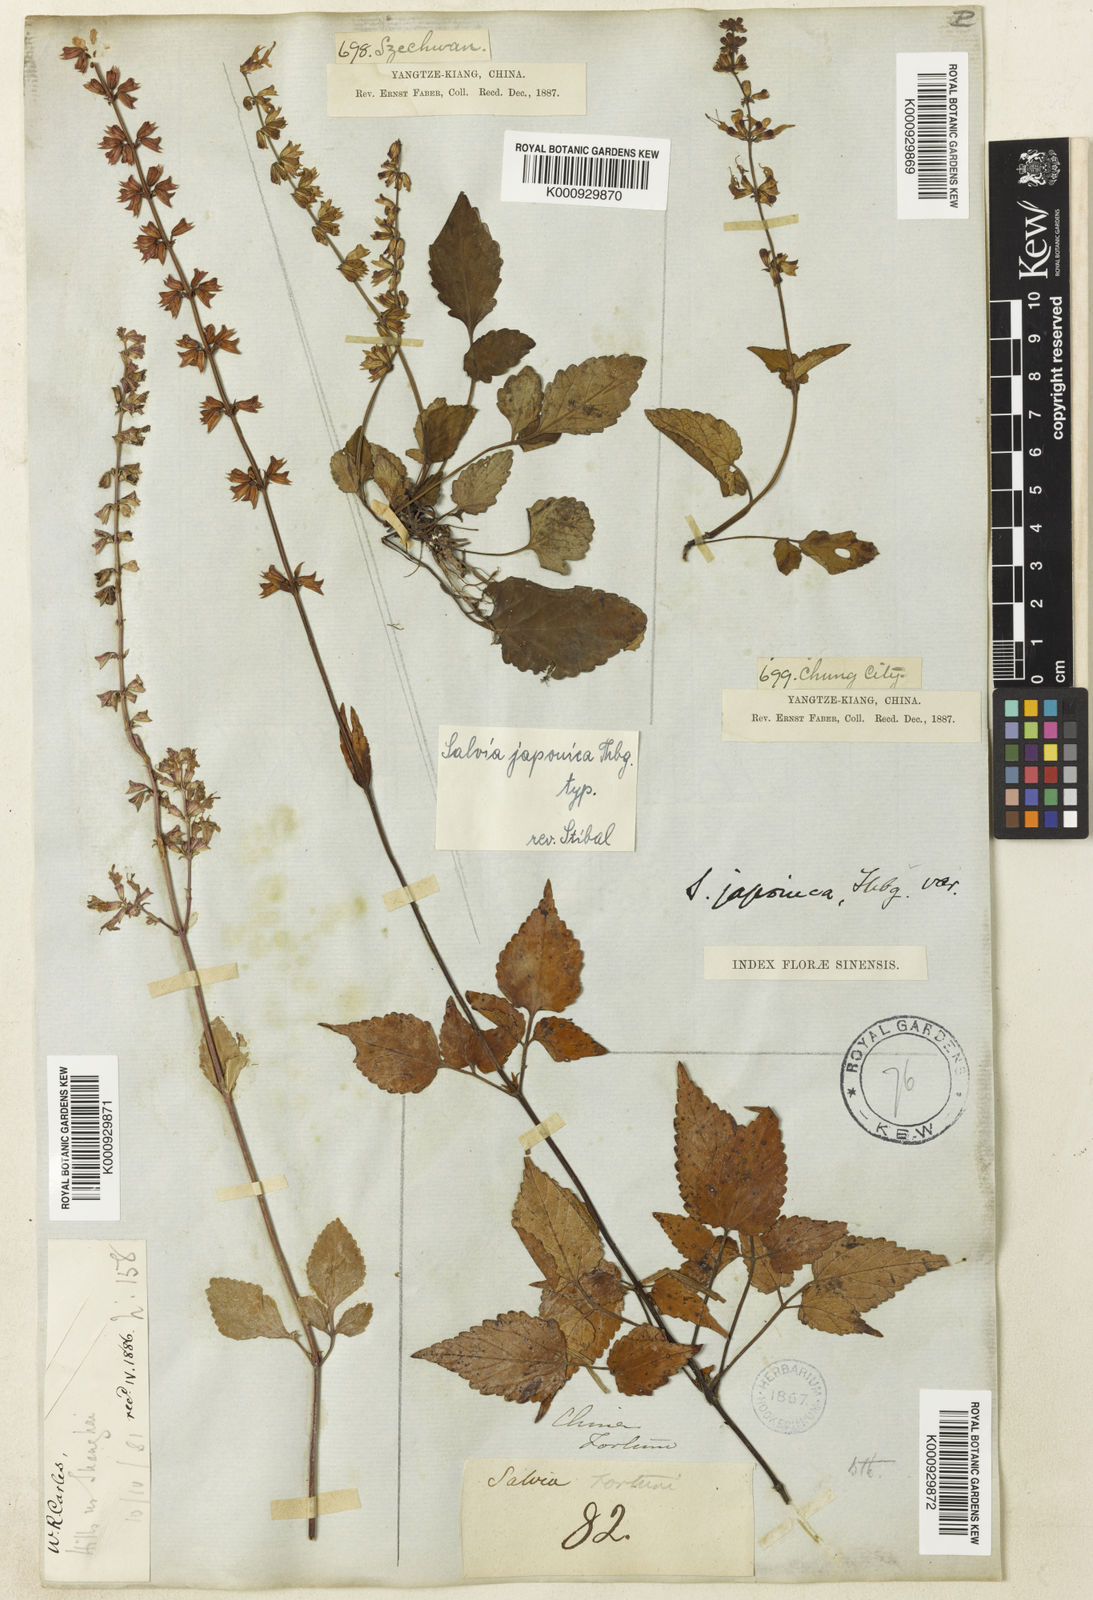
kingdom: Plantae
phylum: Tracheophyta
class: Magnoliopsida
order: Lamiales
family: Lamiaceae
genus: Salvia
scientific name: Salvia japonica
